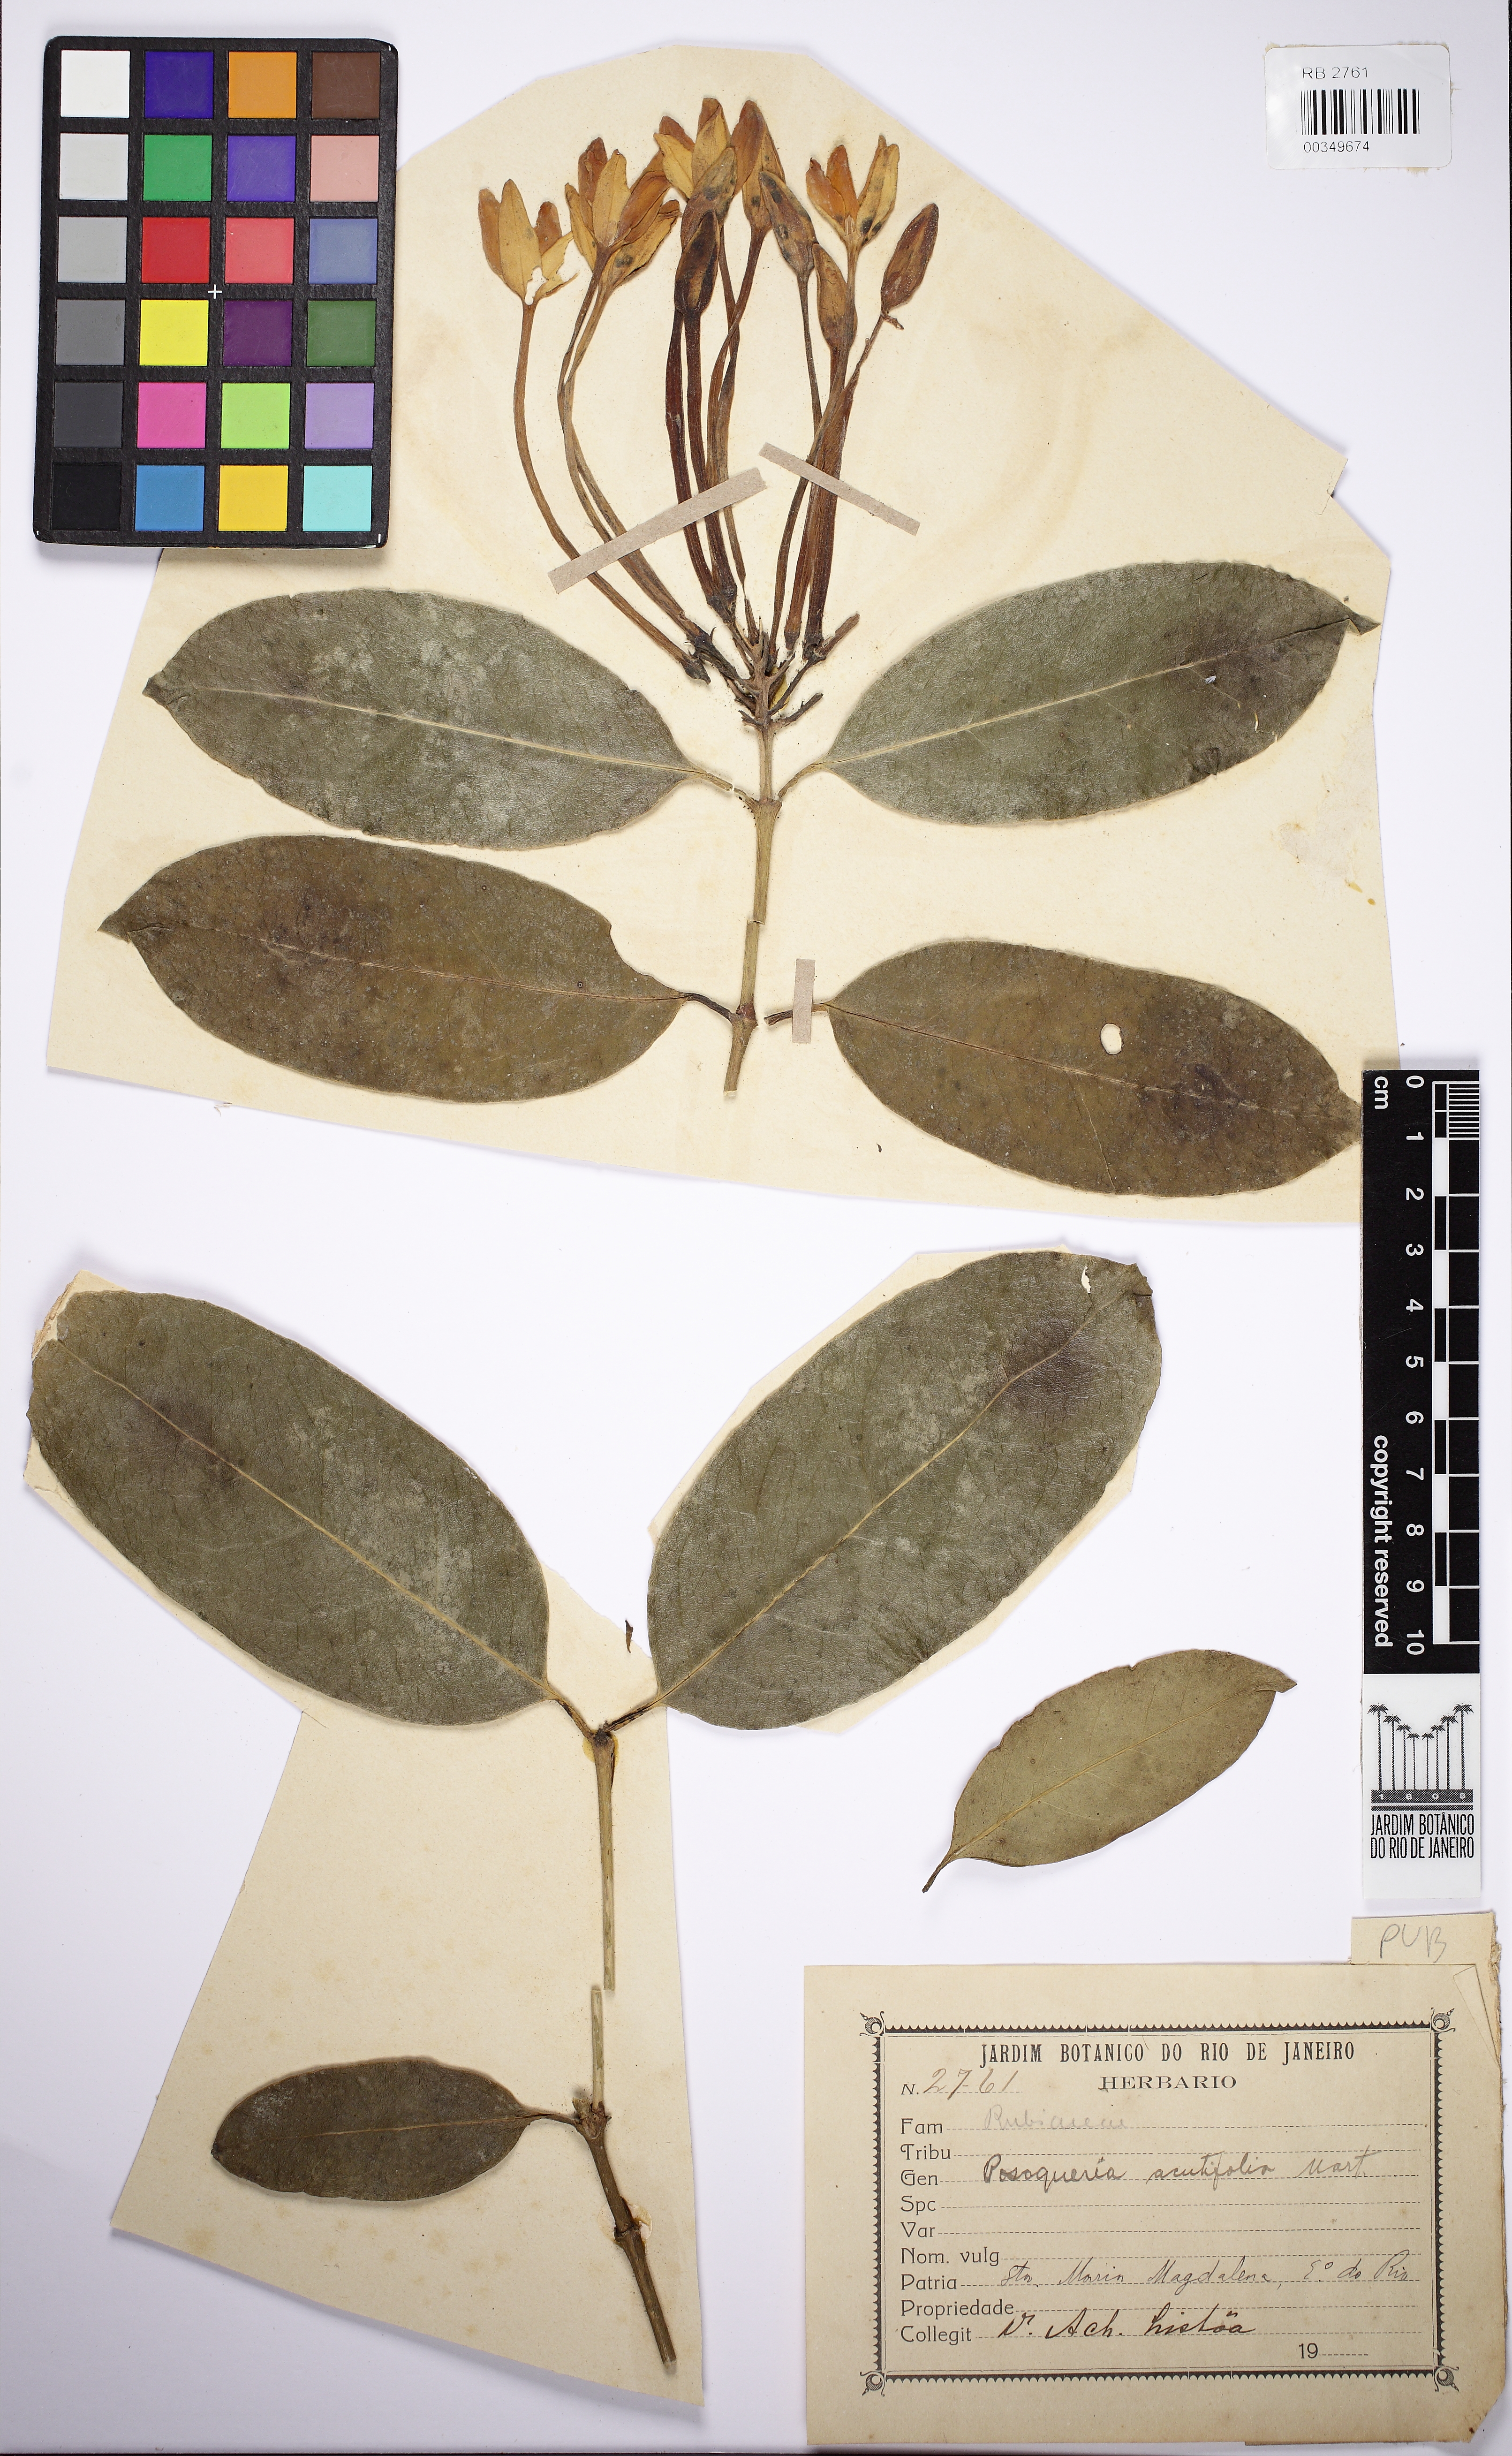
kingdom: Plantae
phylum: Tracheophyta
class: Magnoliopsida
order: Gentianales
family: Rubiaceae
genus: Posoqueria
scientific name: Posoqueria palustris
